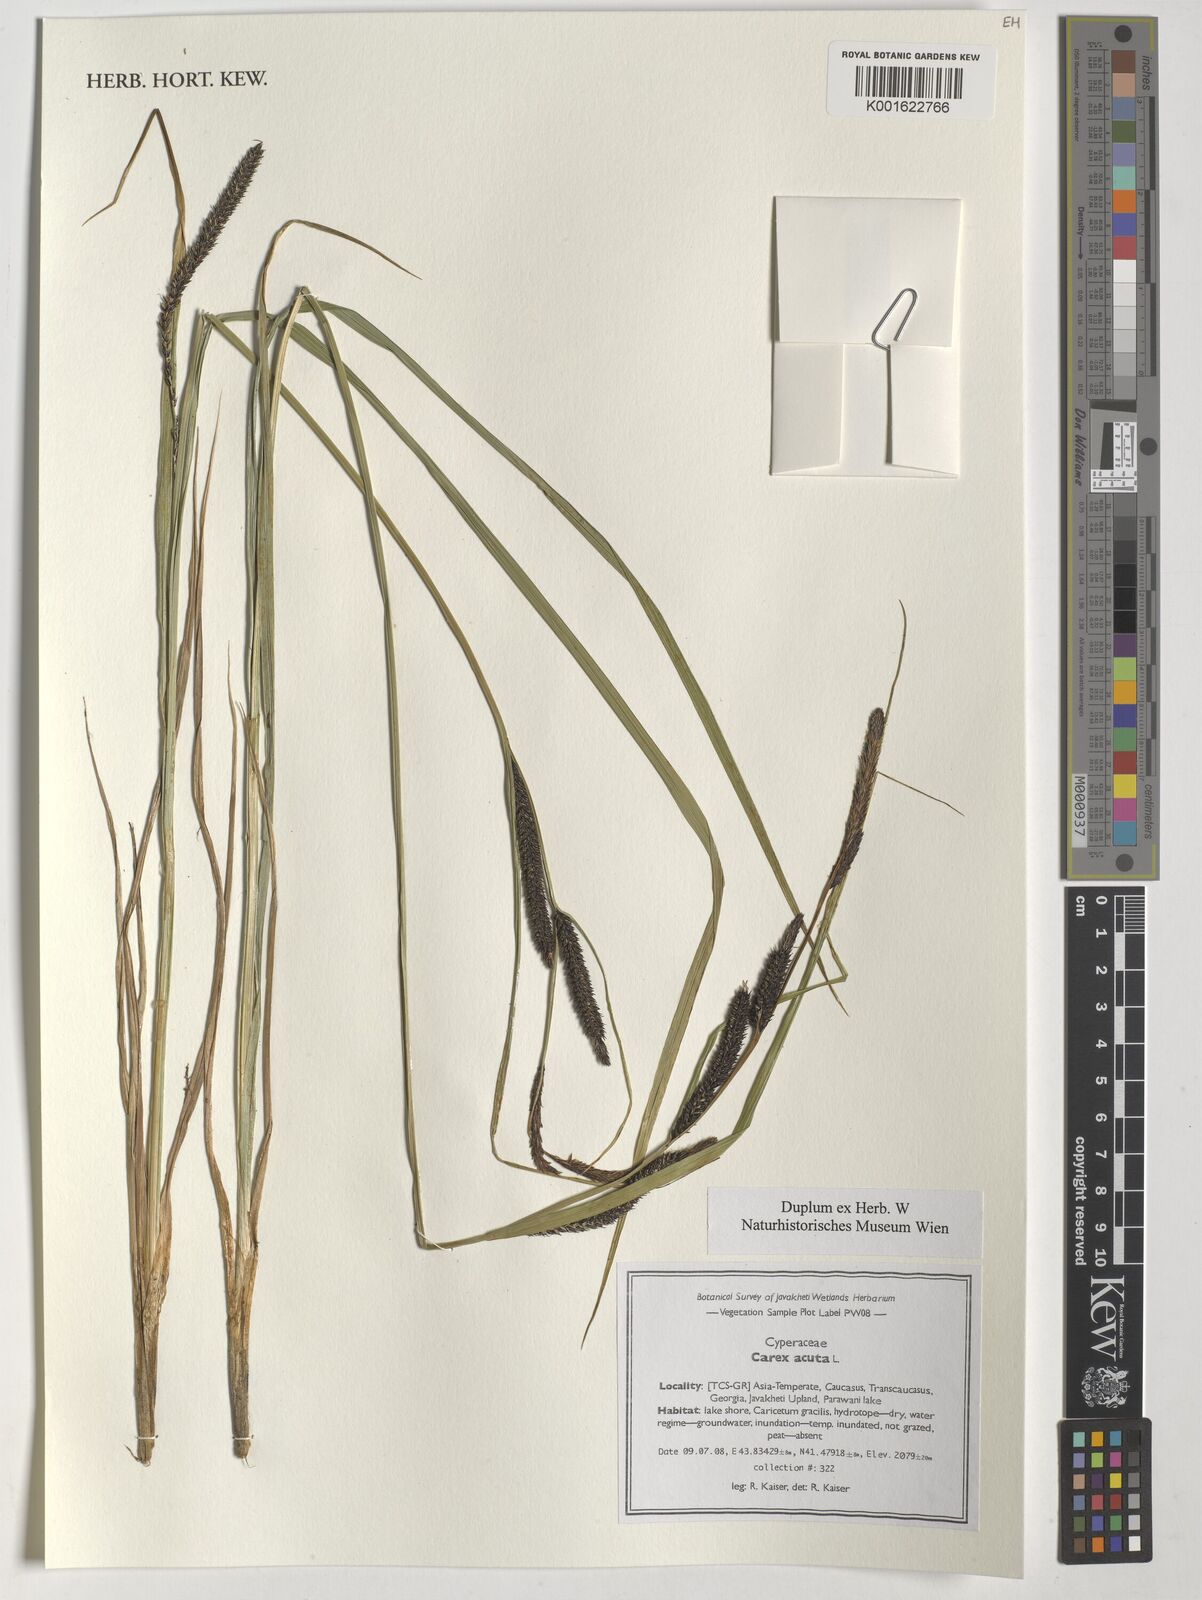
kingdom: Plantae
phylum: Tracheophyta
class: Liliopsida
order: Poales
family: Cyperaceae
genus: Carex
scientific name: Carex acuta
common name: Slender tufted-sedge
